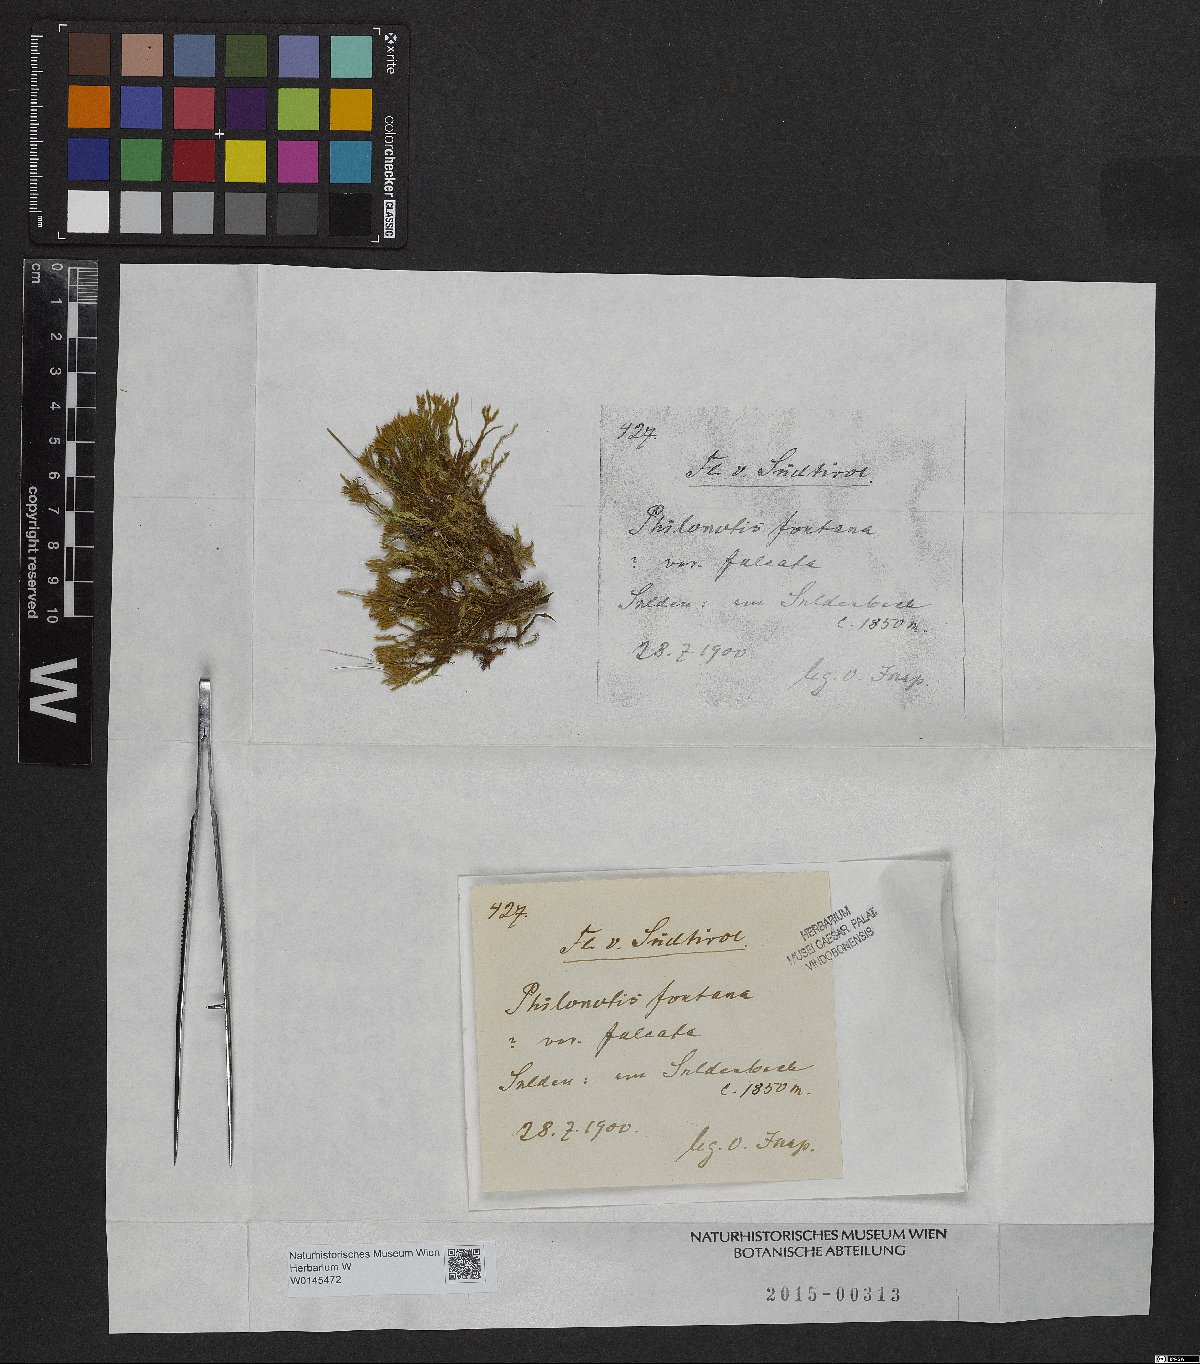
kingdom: Plantae
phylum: Bryophyta
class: Bryopsida
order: Bartramiales
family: Bartramiaceae
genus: Philonotis
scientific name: Philonotis falcata
